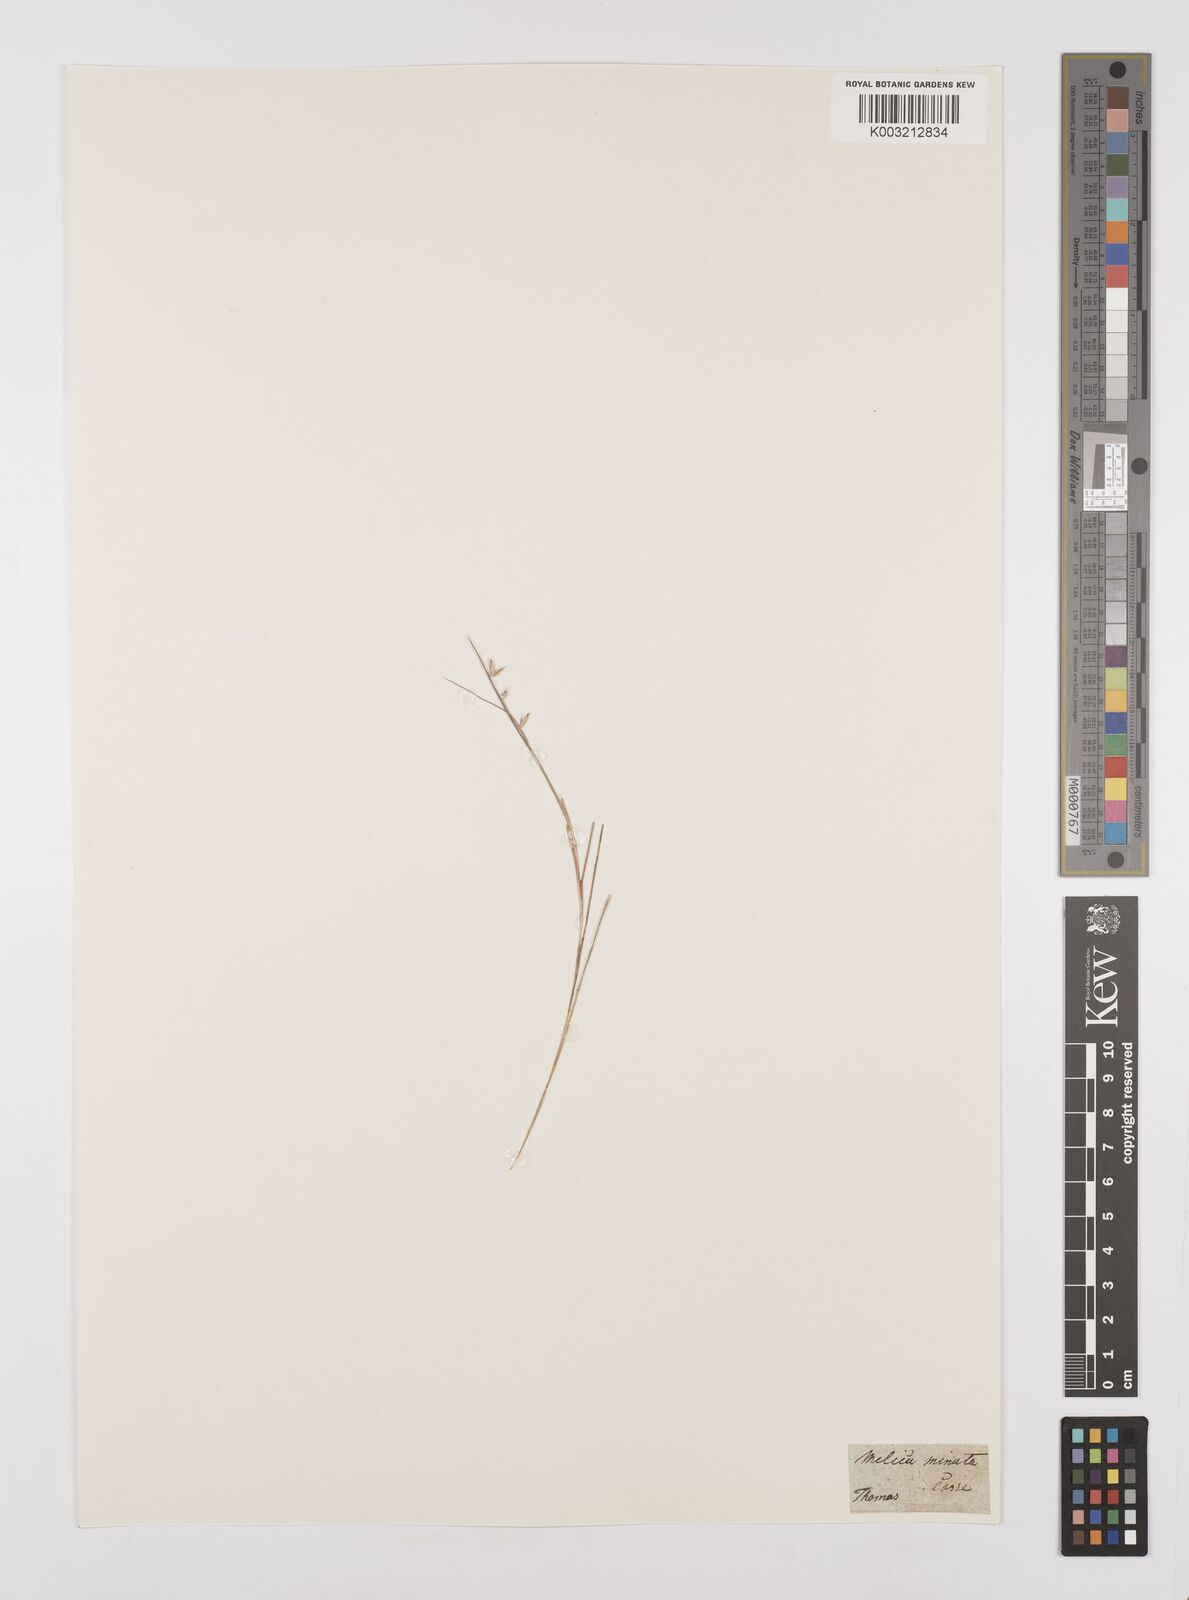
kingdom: Plantae
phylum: Tracheophyta
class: Liliopsida
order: Poales
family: Poaceae
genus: Melica
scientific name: Melica minuta
